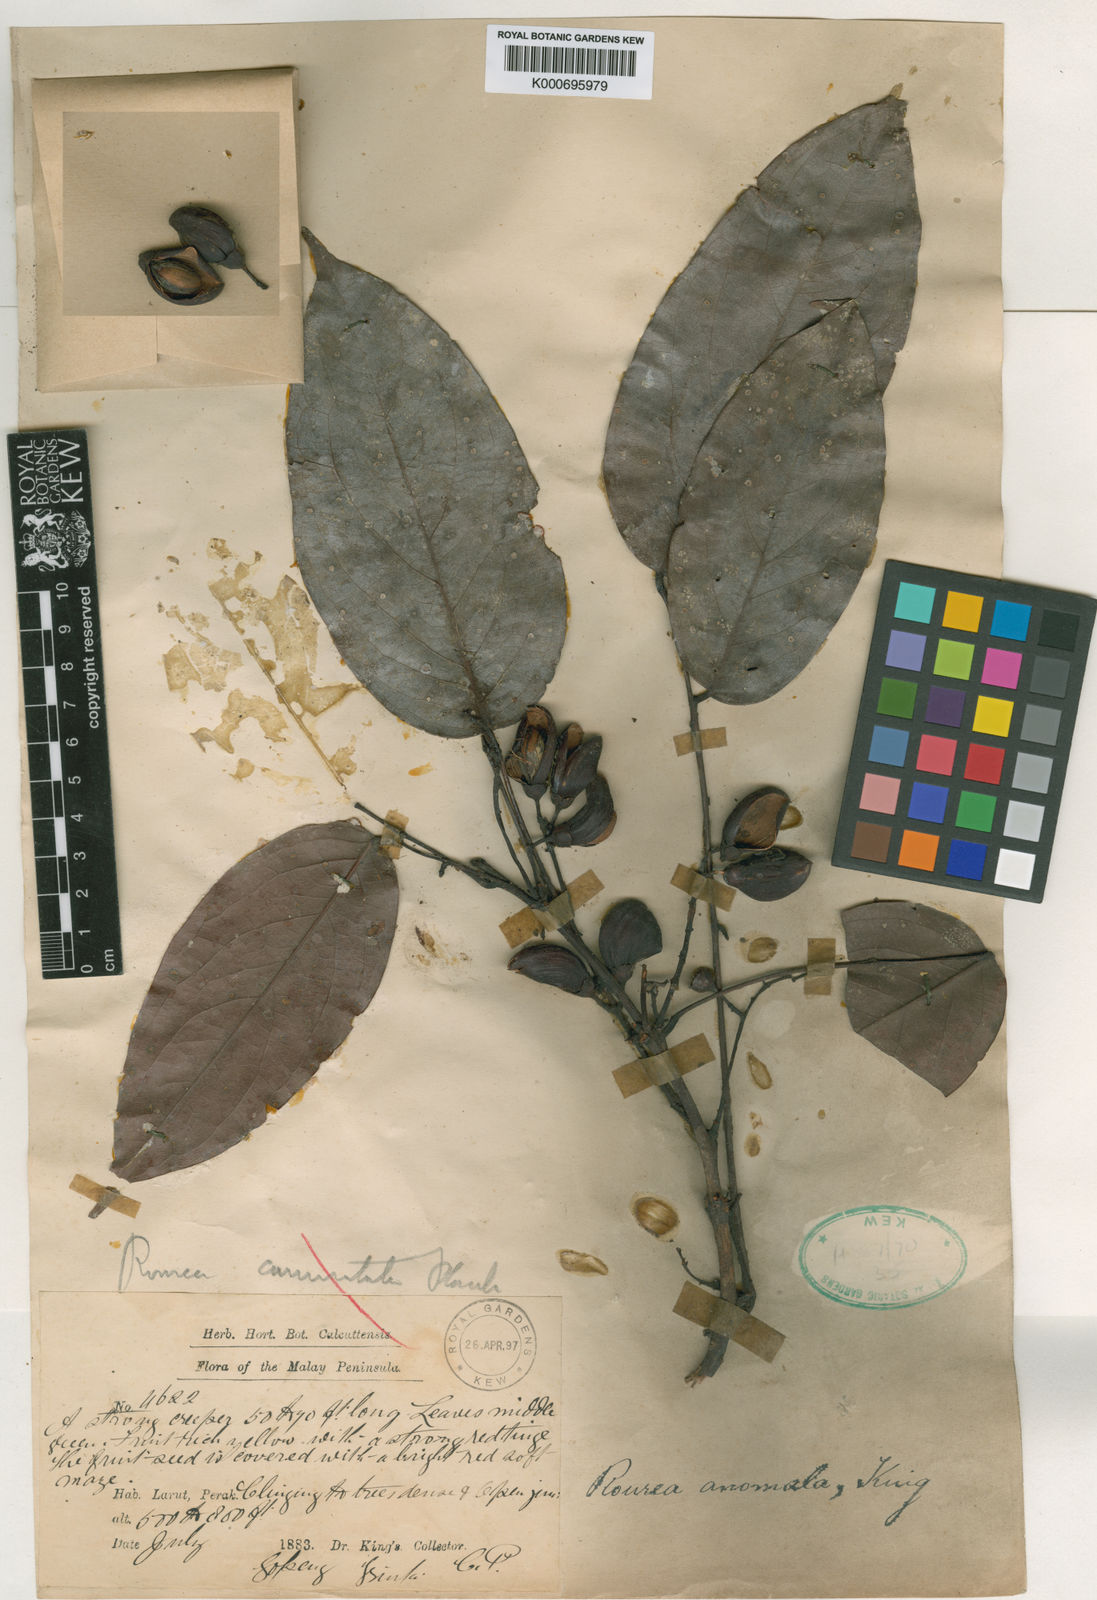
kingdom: Plantae
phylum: Tracheophyta
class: Magnoliopsida
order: Oxalidales
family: Connaraceae
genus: Rourea
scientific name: Rourea
